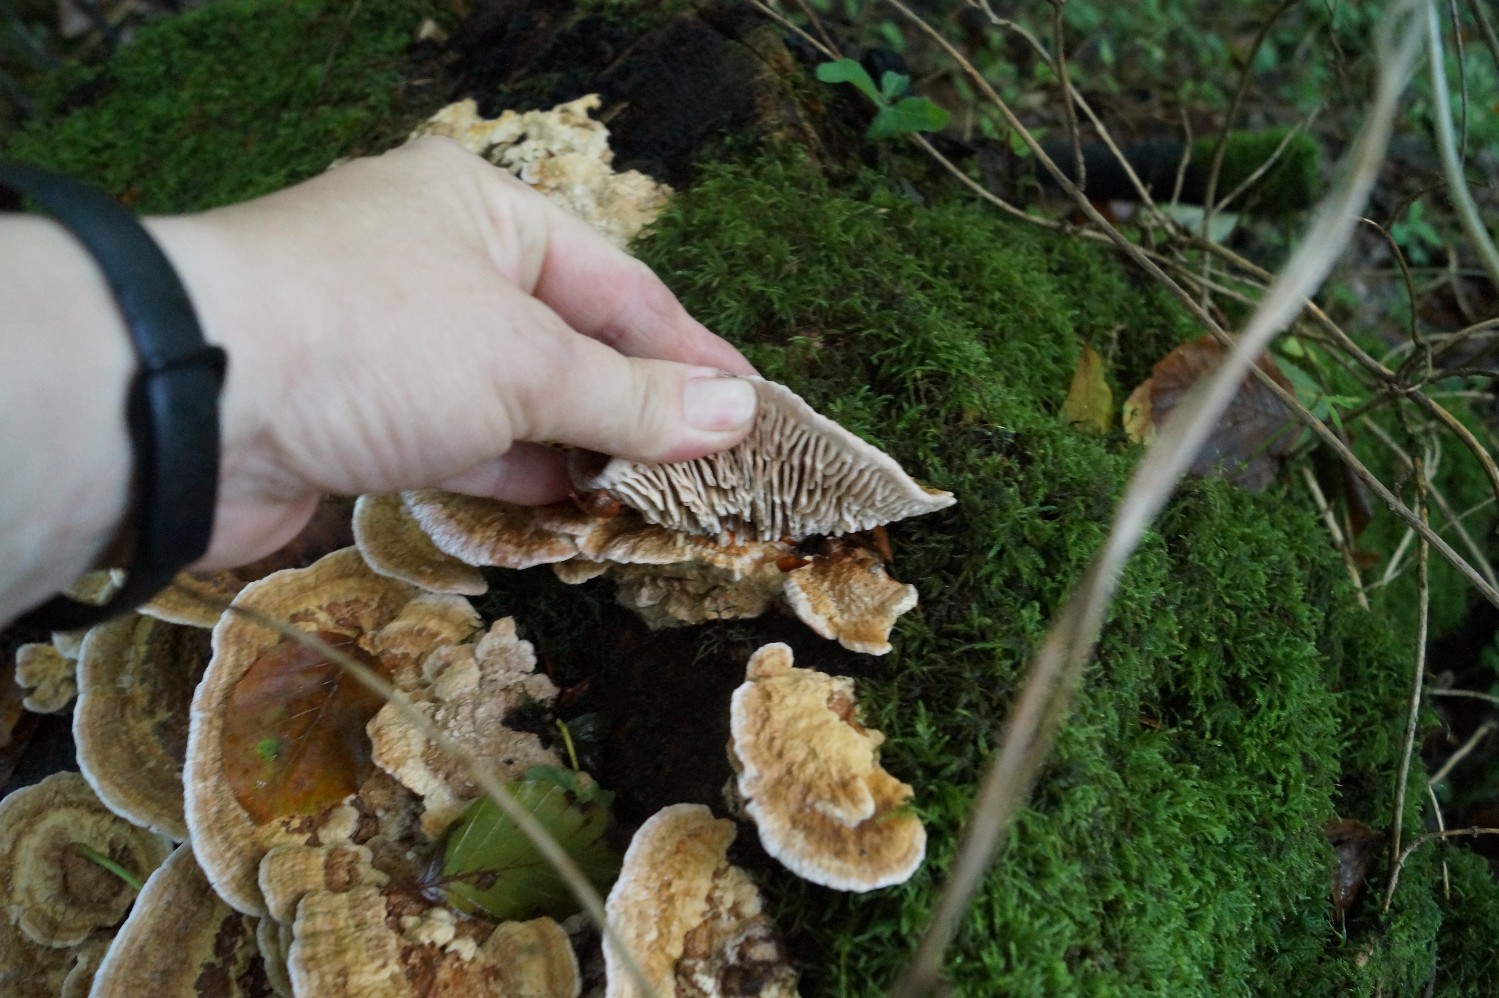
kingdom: Fungi
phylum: Basidiomycota
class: Agaricomycetes
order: Polyporales
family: Fomitopsidaceae
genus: Daedalea
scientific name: Daedalea quercina
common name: ege-labyrintsvamp
